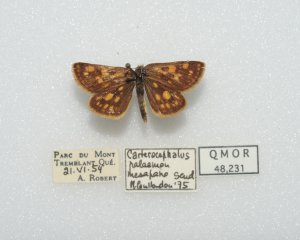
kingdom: Animalia
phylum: Arthropoda
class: Insecta
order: Lepidoptera
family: Hesperiidae
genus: Carterocephalus
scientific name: Carterocephalus palaemon
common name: Chequered Skipper
